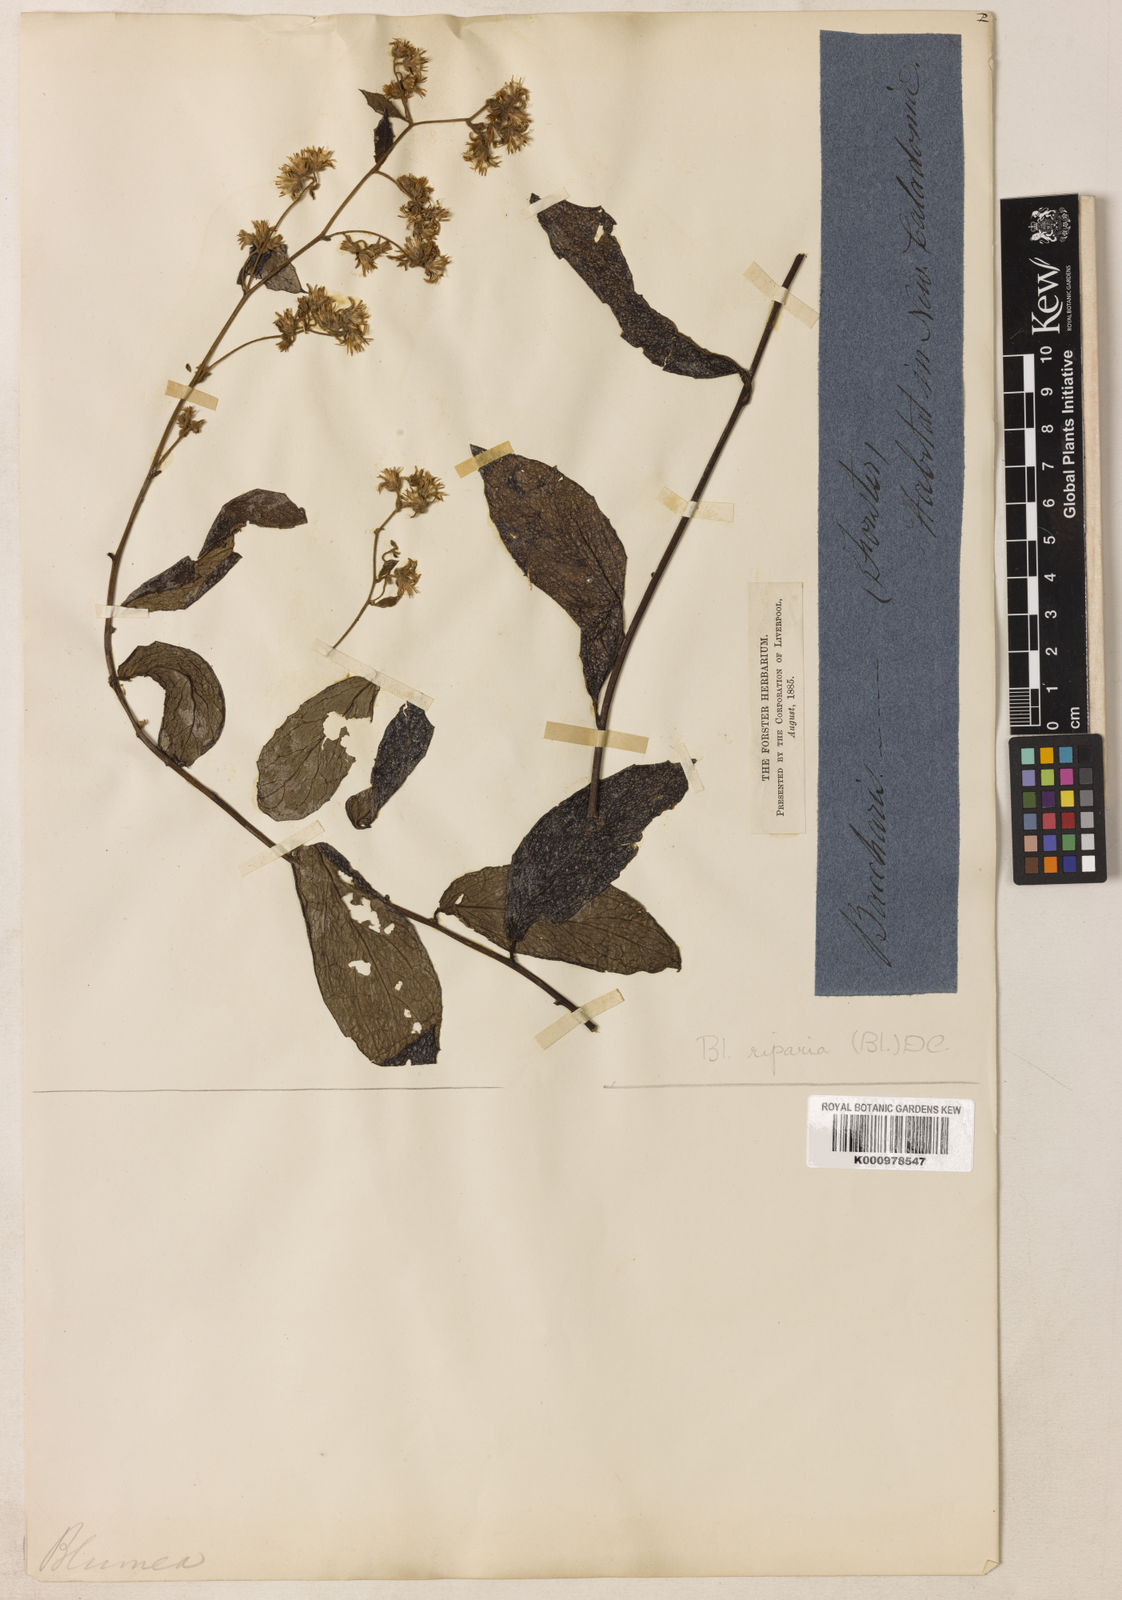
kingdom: Plantae
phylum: Tracheophyta
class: Magnoliopsida
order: Asterales
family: Asteraceae
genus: Blumea
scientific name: Blumea riparia
